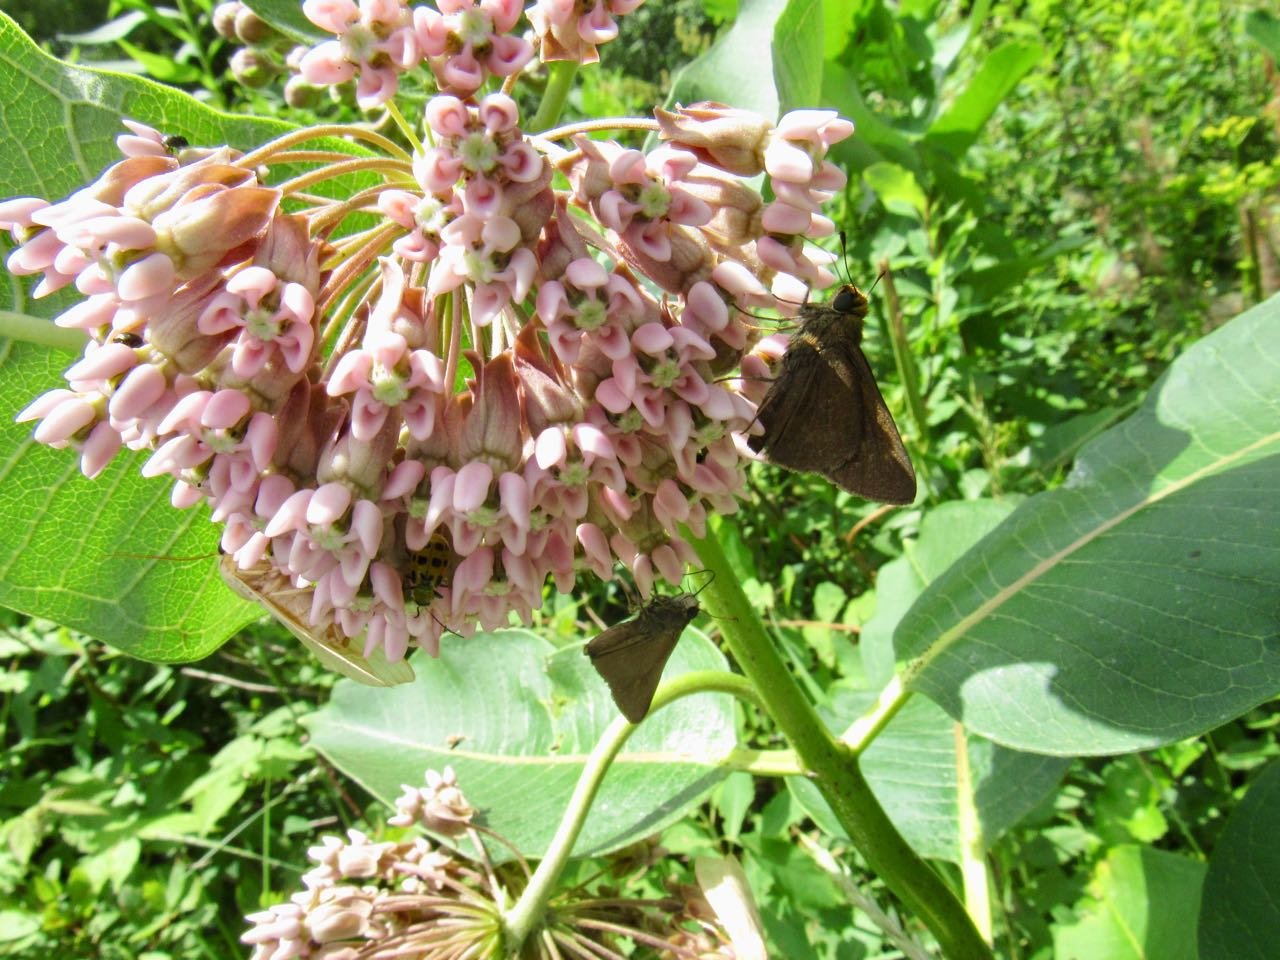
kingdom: Animalia
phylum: Arthropoda
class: Insecta
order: Lepidoptera
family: Hesperiidae
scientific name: Hesperiidae
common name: Skippers
